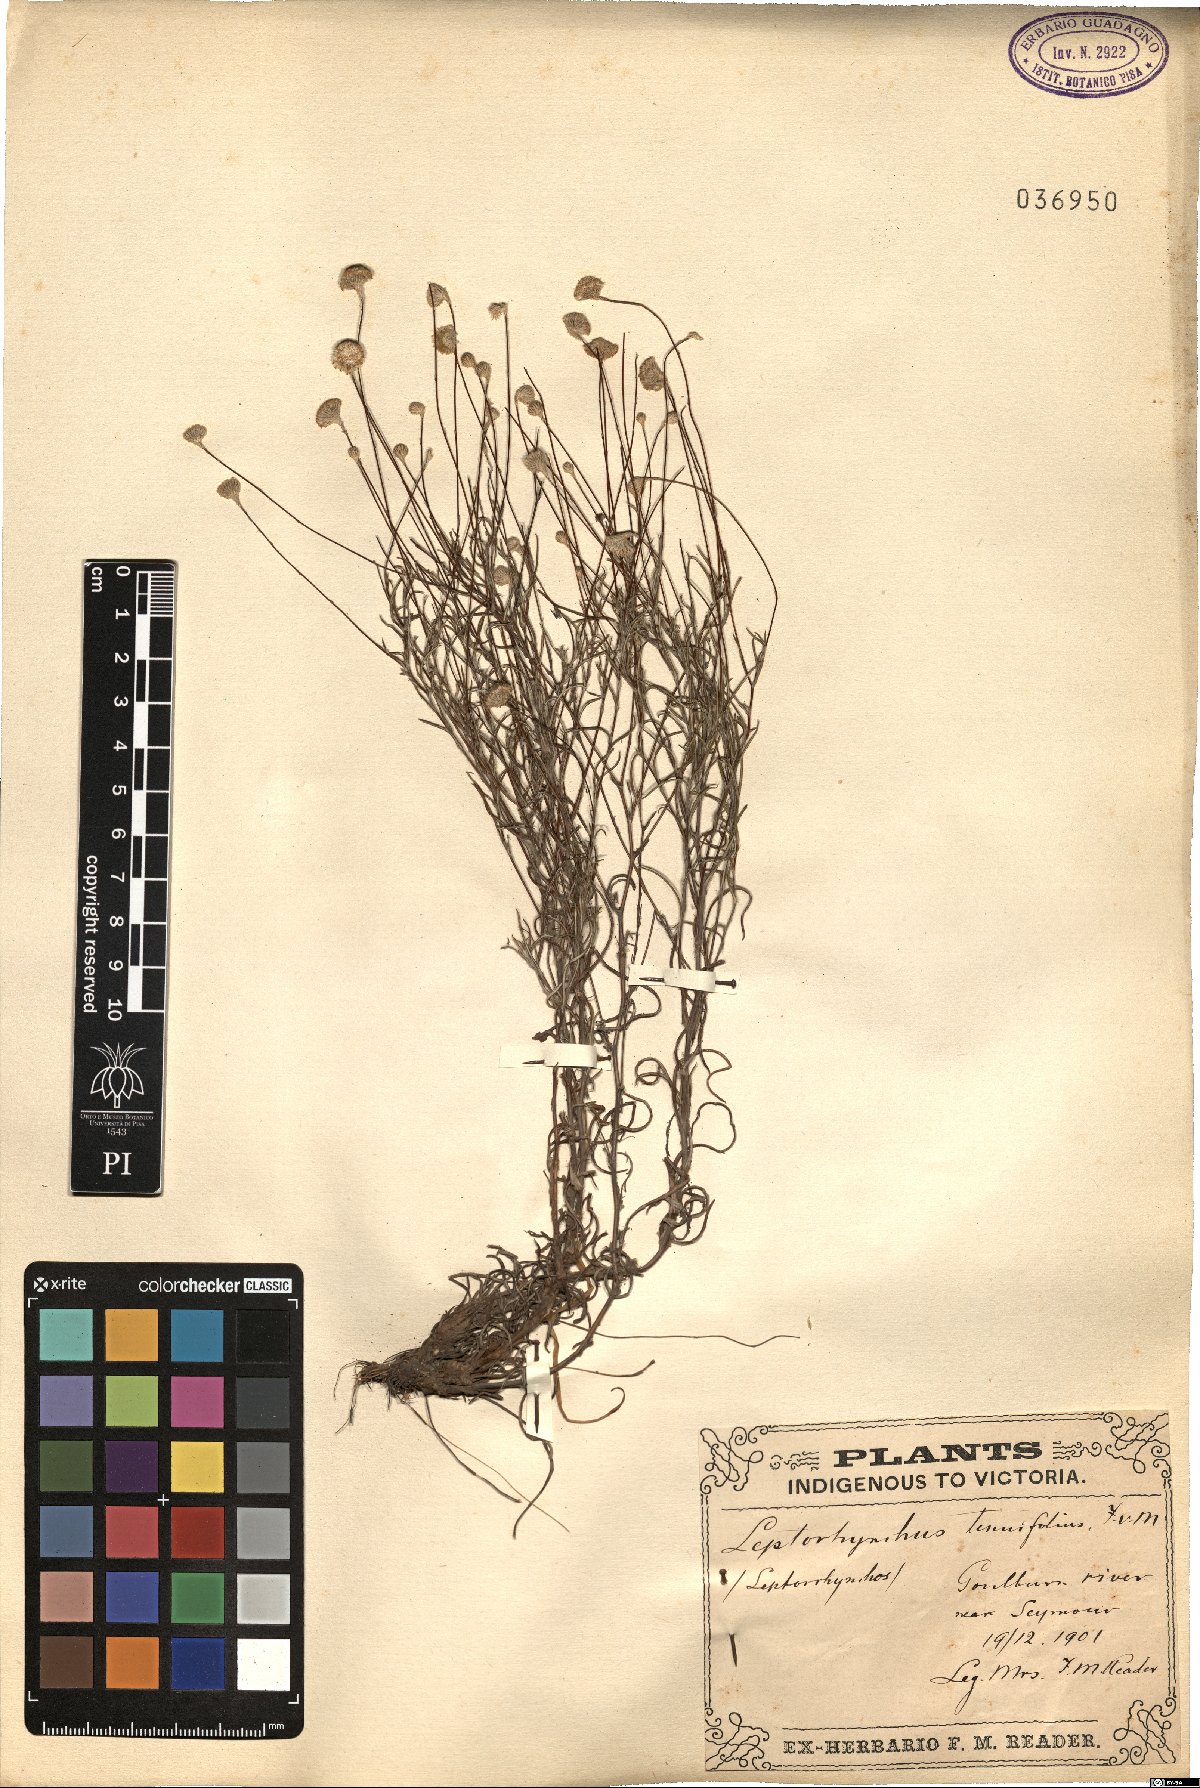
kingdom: Plantae
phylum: Tracheophyta
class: Magnoliopsida
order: Asterales
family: Asteraceae
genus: Leptorhynchos
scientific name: Leptorhynchos tenuifolius
